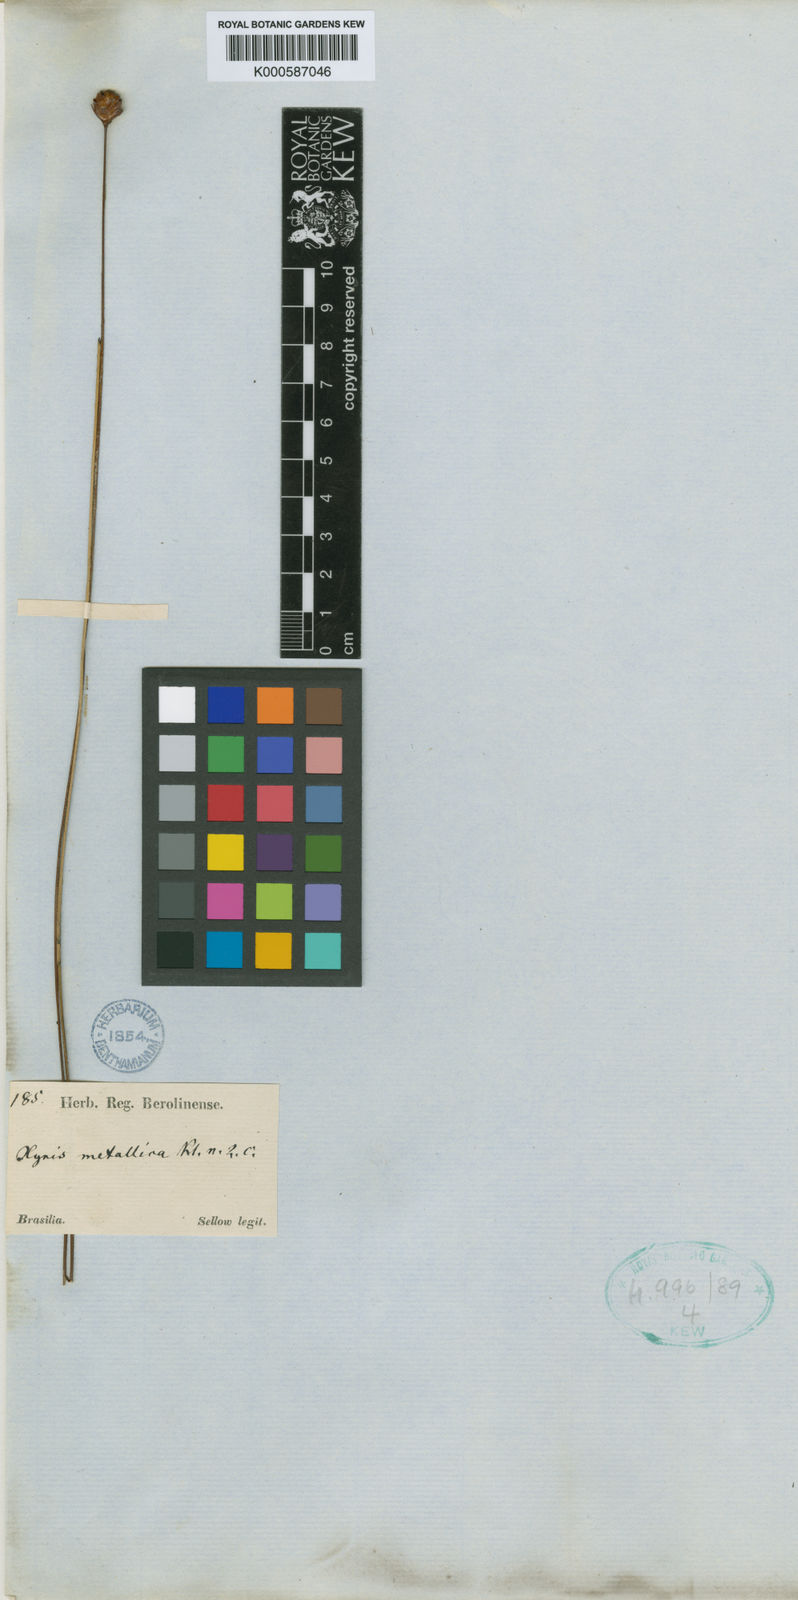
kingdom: Plantae
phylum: Tracheophyta
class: Liliopsida
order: Poales
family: Xyridaceae
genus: Xyris
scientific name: Xyris metallica
